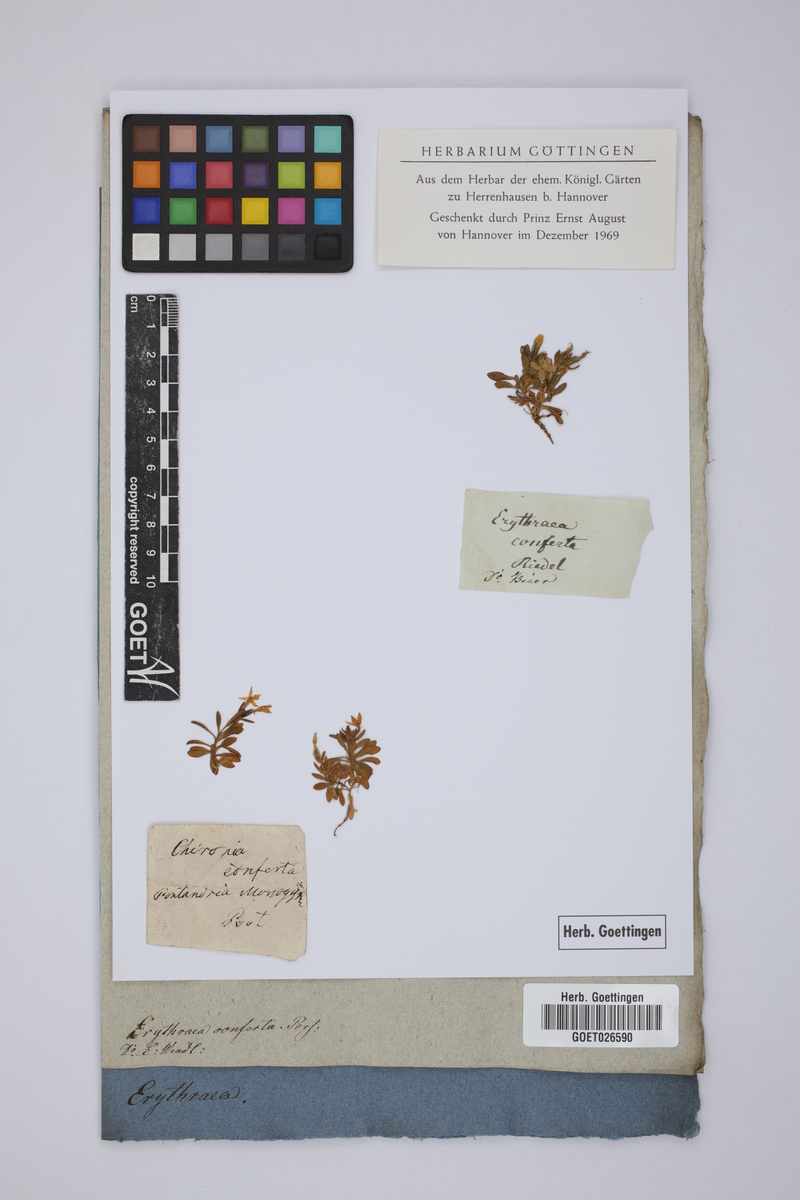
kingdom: Plantae
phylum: Tracheophyta
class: Magnoliopsida
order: Gentianales
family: Gentianaceae
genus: Centaurium
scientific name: Centaurium chloodes
